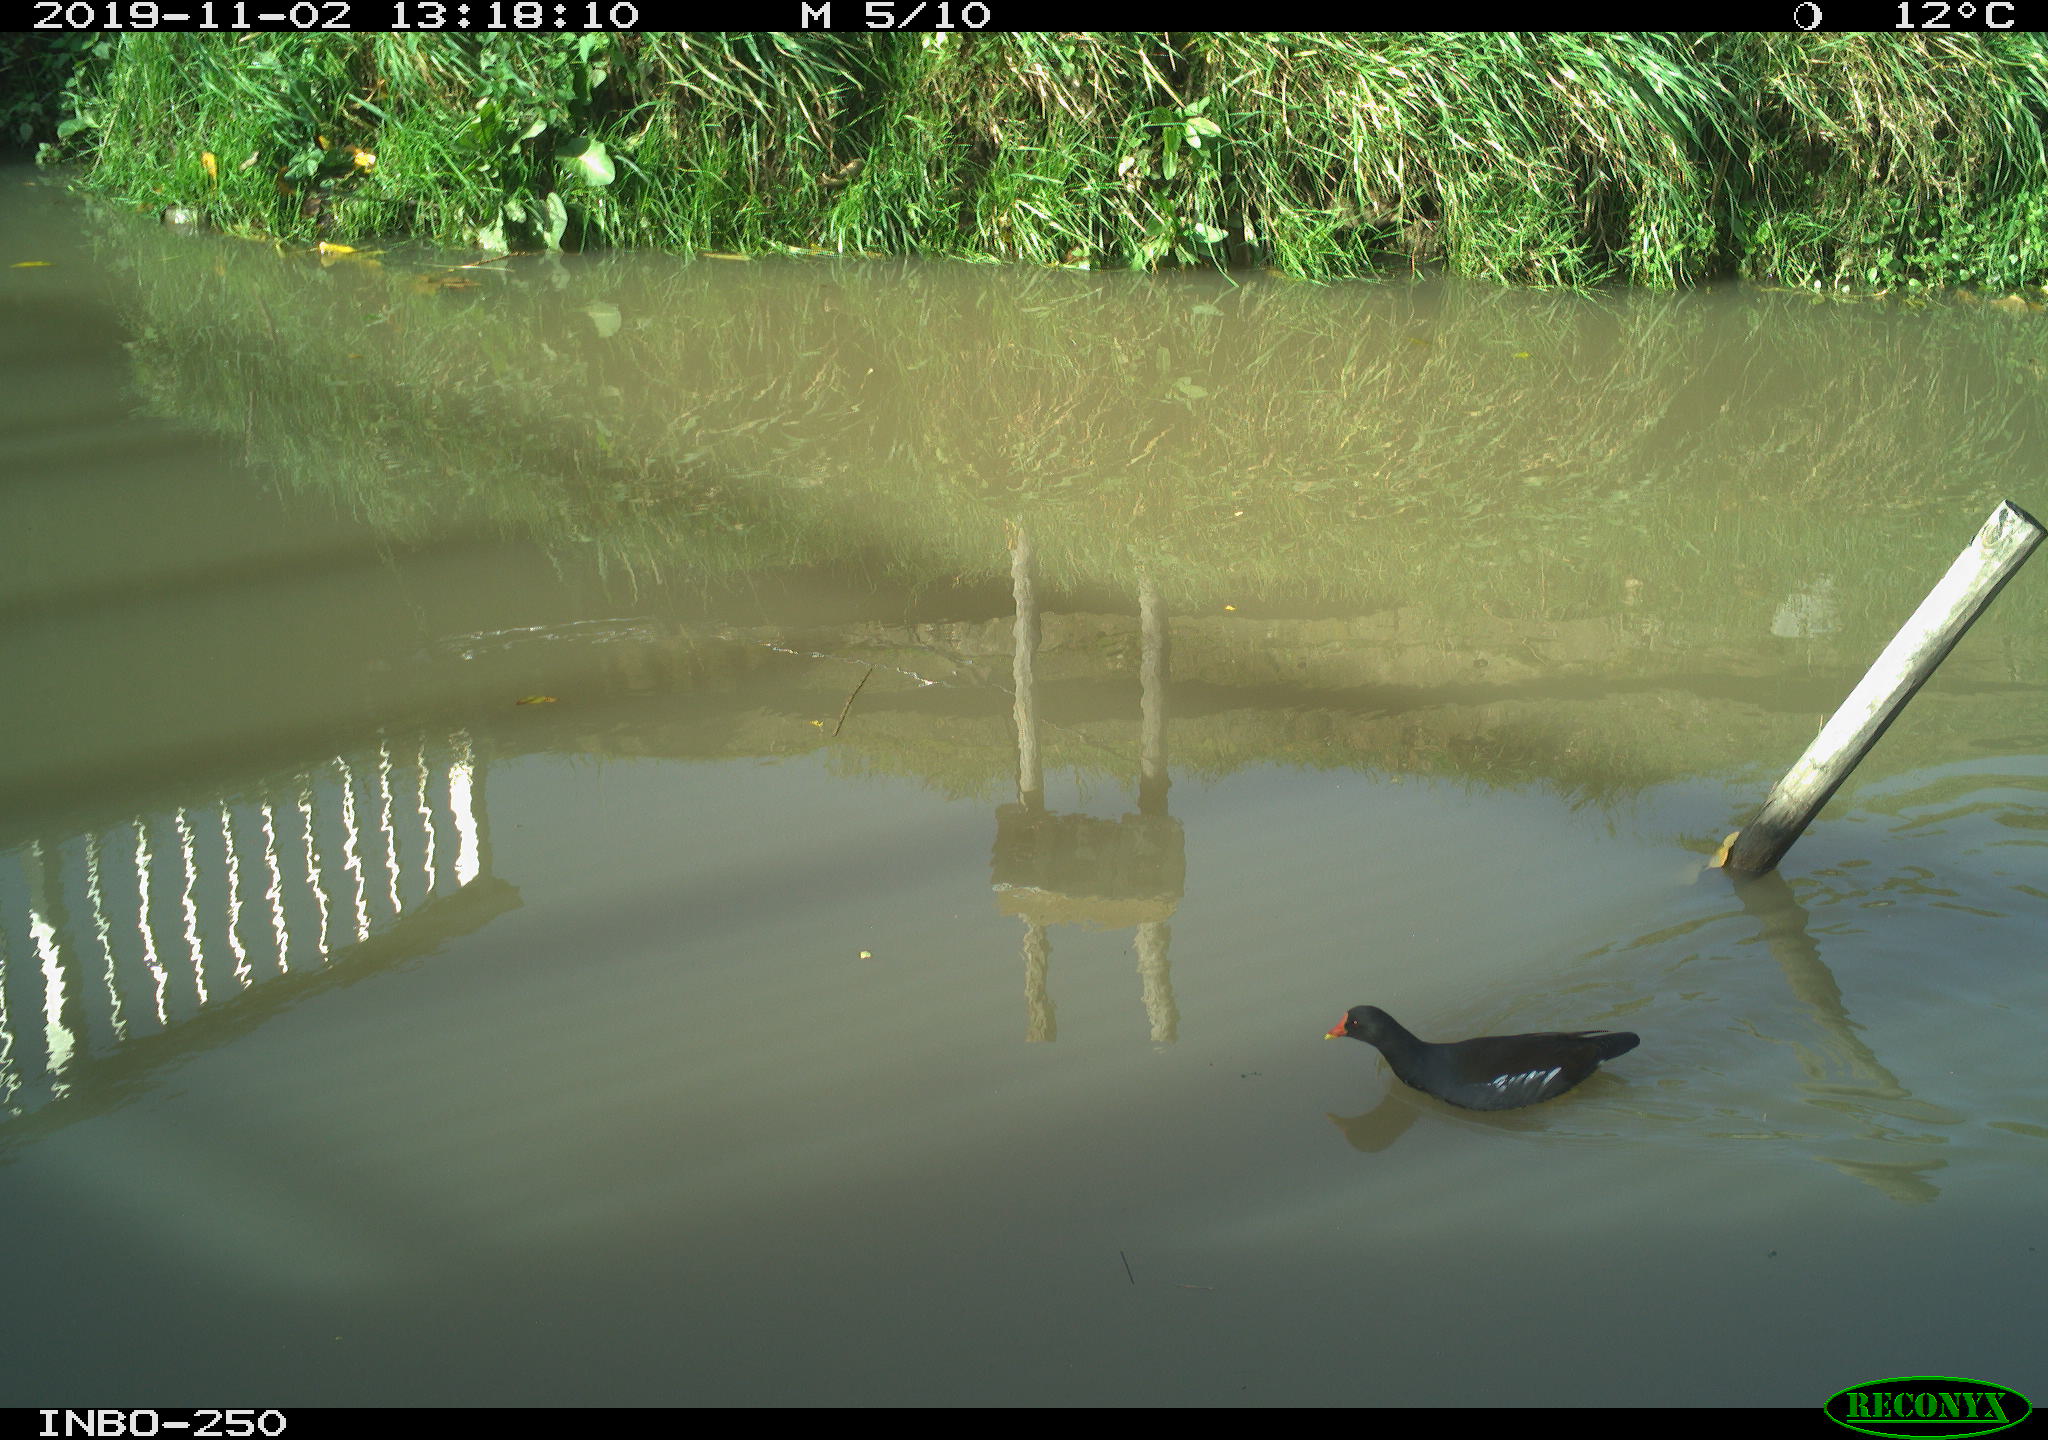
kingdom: Animalia
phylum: Chordata
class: Aves
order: Gruiformes
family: Rallidae
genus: Gallinula
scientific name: Gallinula chloropus
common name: Common moorhen
